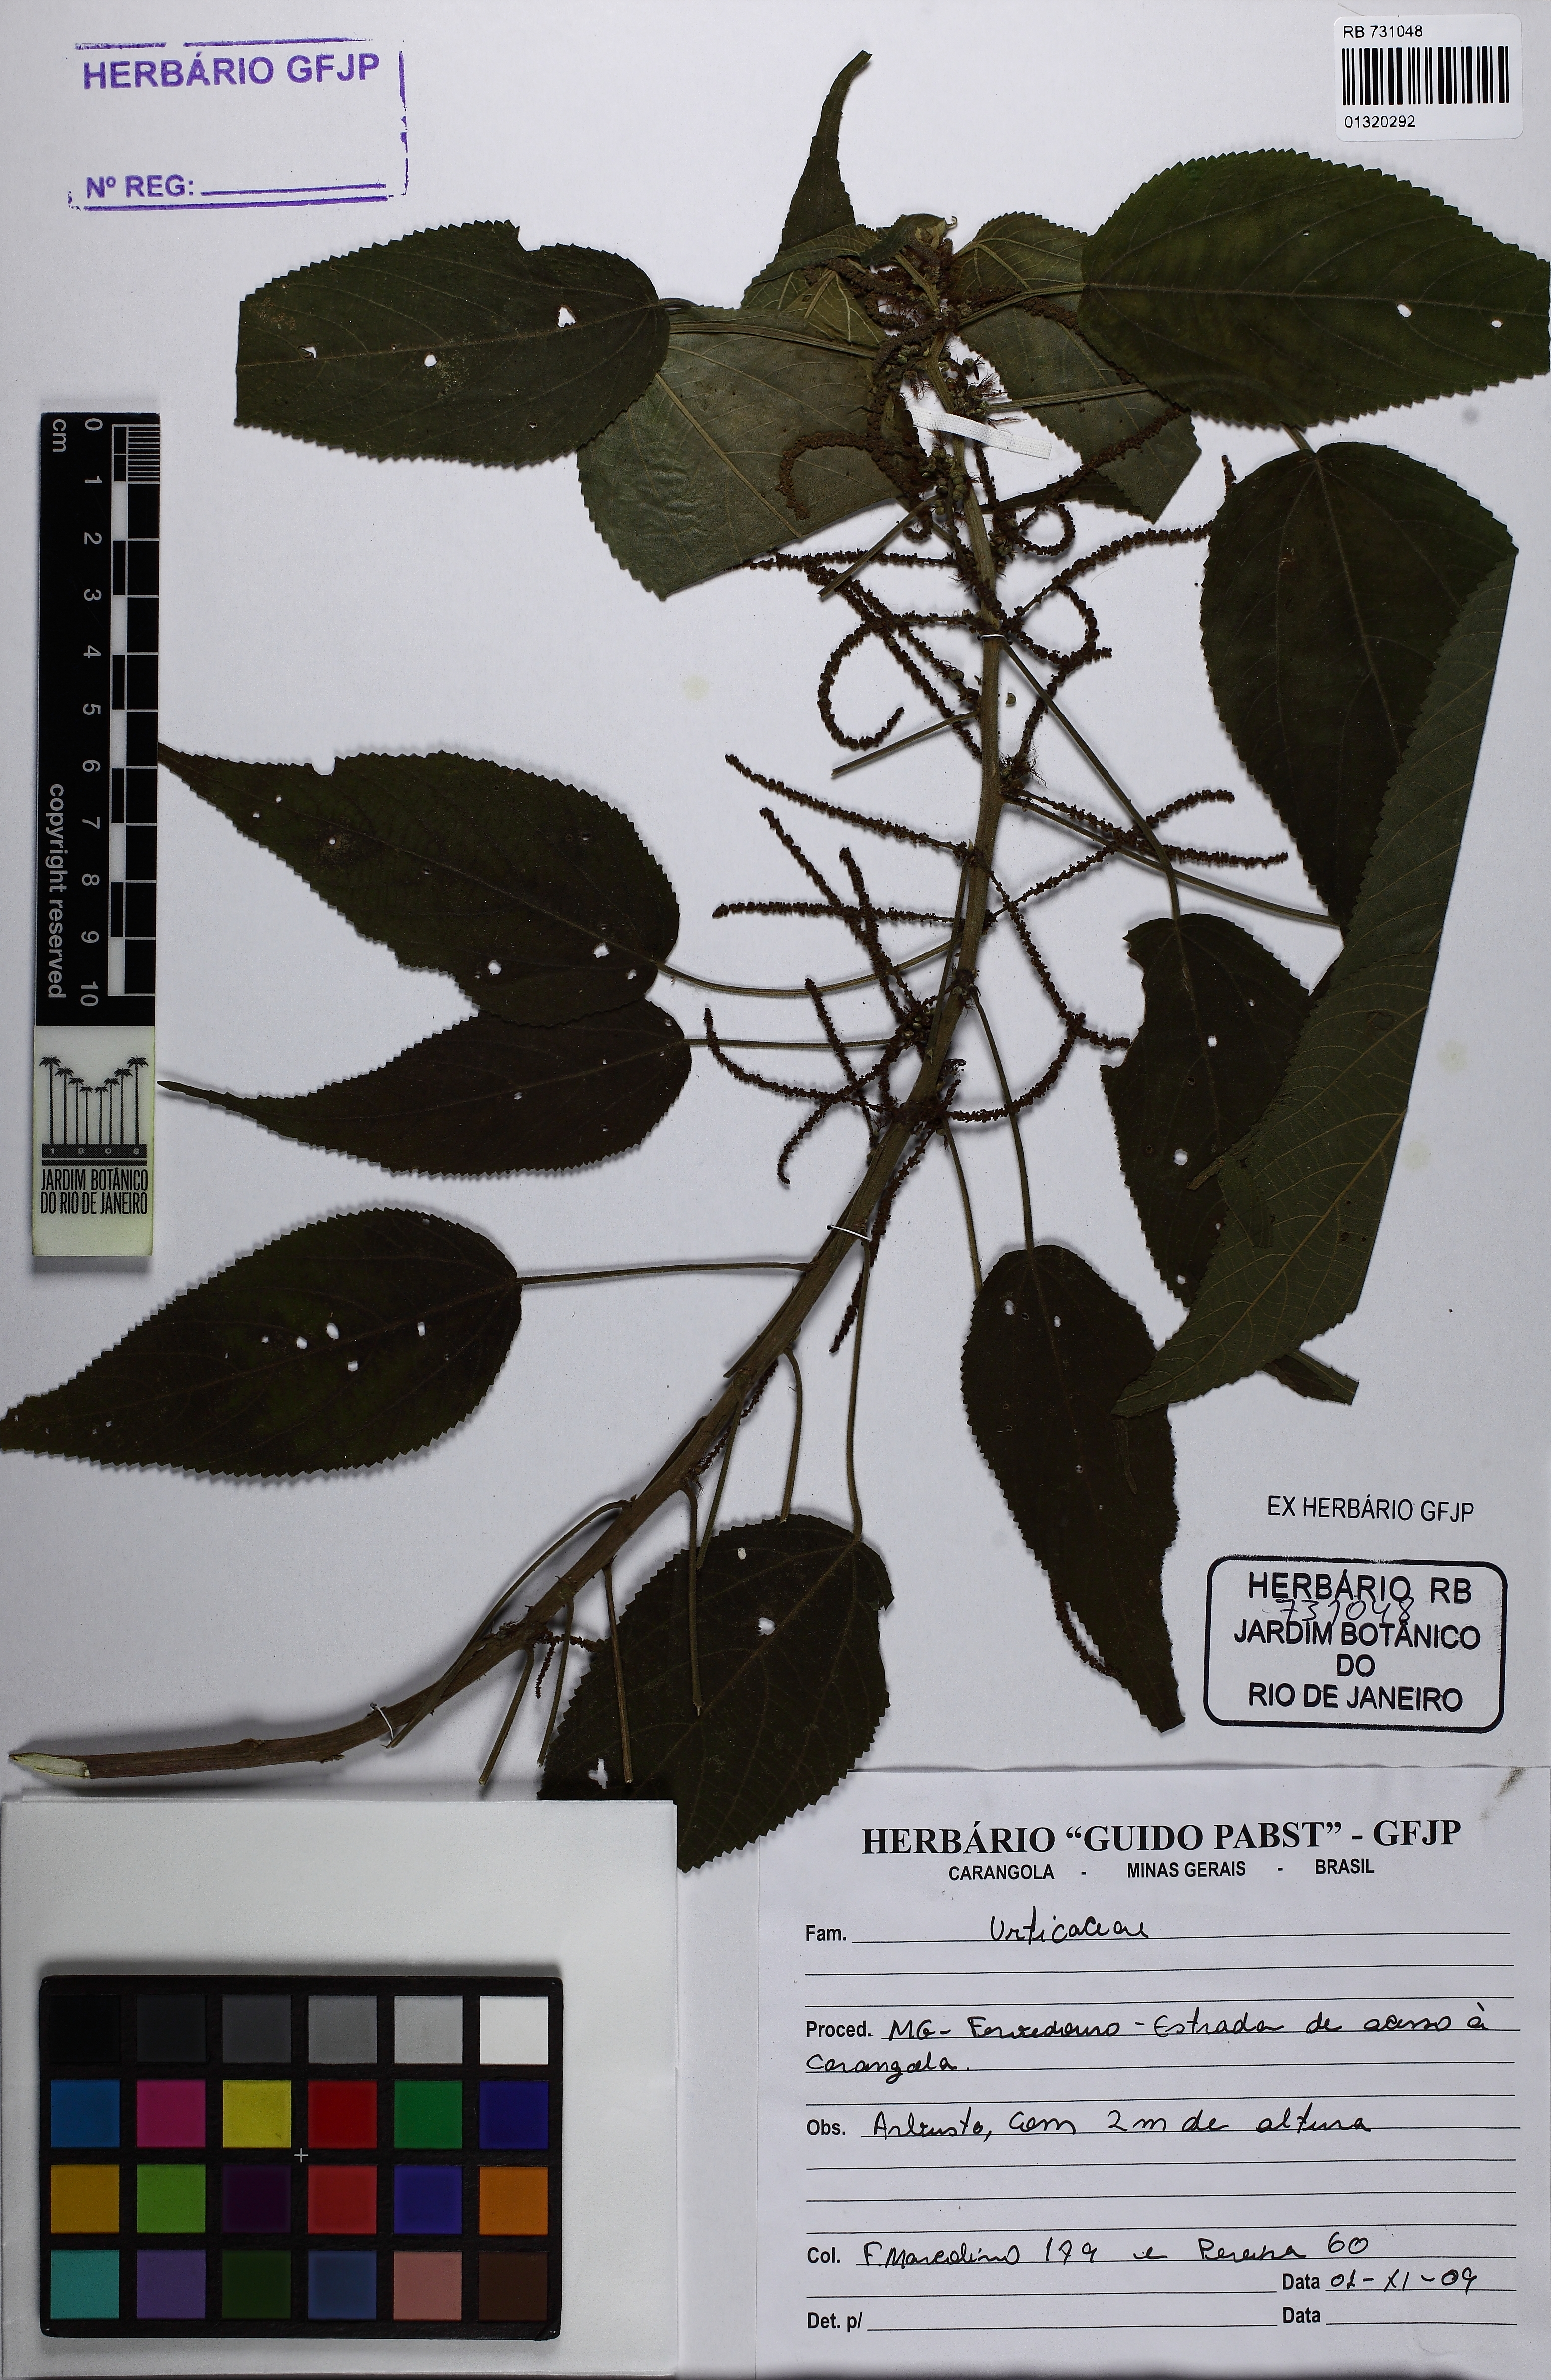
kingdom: Plantae
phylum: Tracheophyta
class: Magnoliopsida
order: Malpighiales
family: Euphorbiaceae
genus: Acalypha
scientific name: Acalypha brasiliensis
